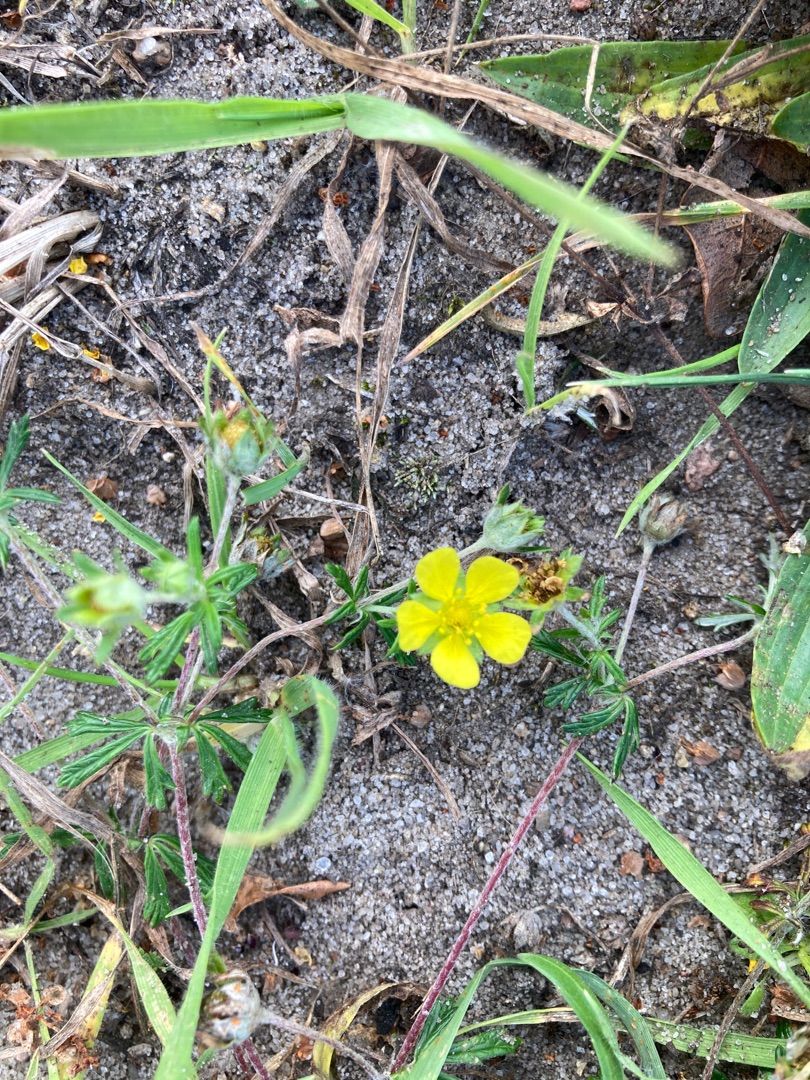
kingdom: Plantae
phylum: Tracheophyta
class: Magnoliopsida
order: Rosales
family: Rosaceae
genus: Potentilla
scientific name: Potentilla argentea
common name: Sølv-potentil
